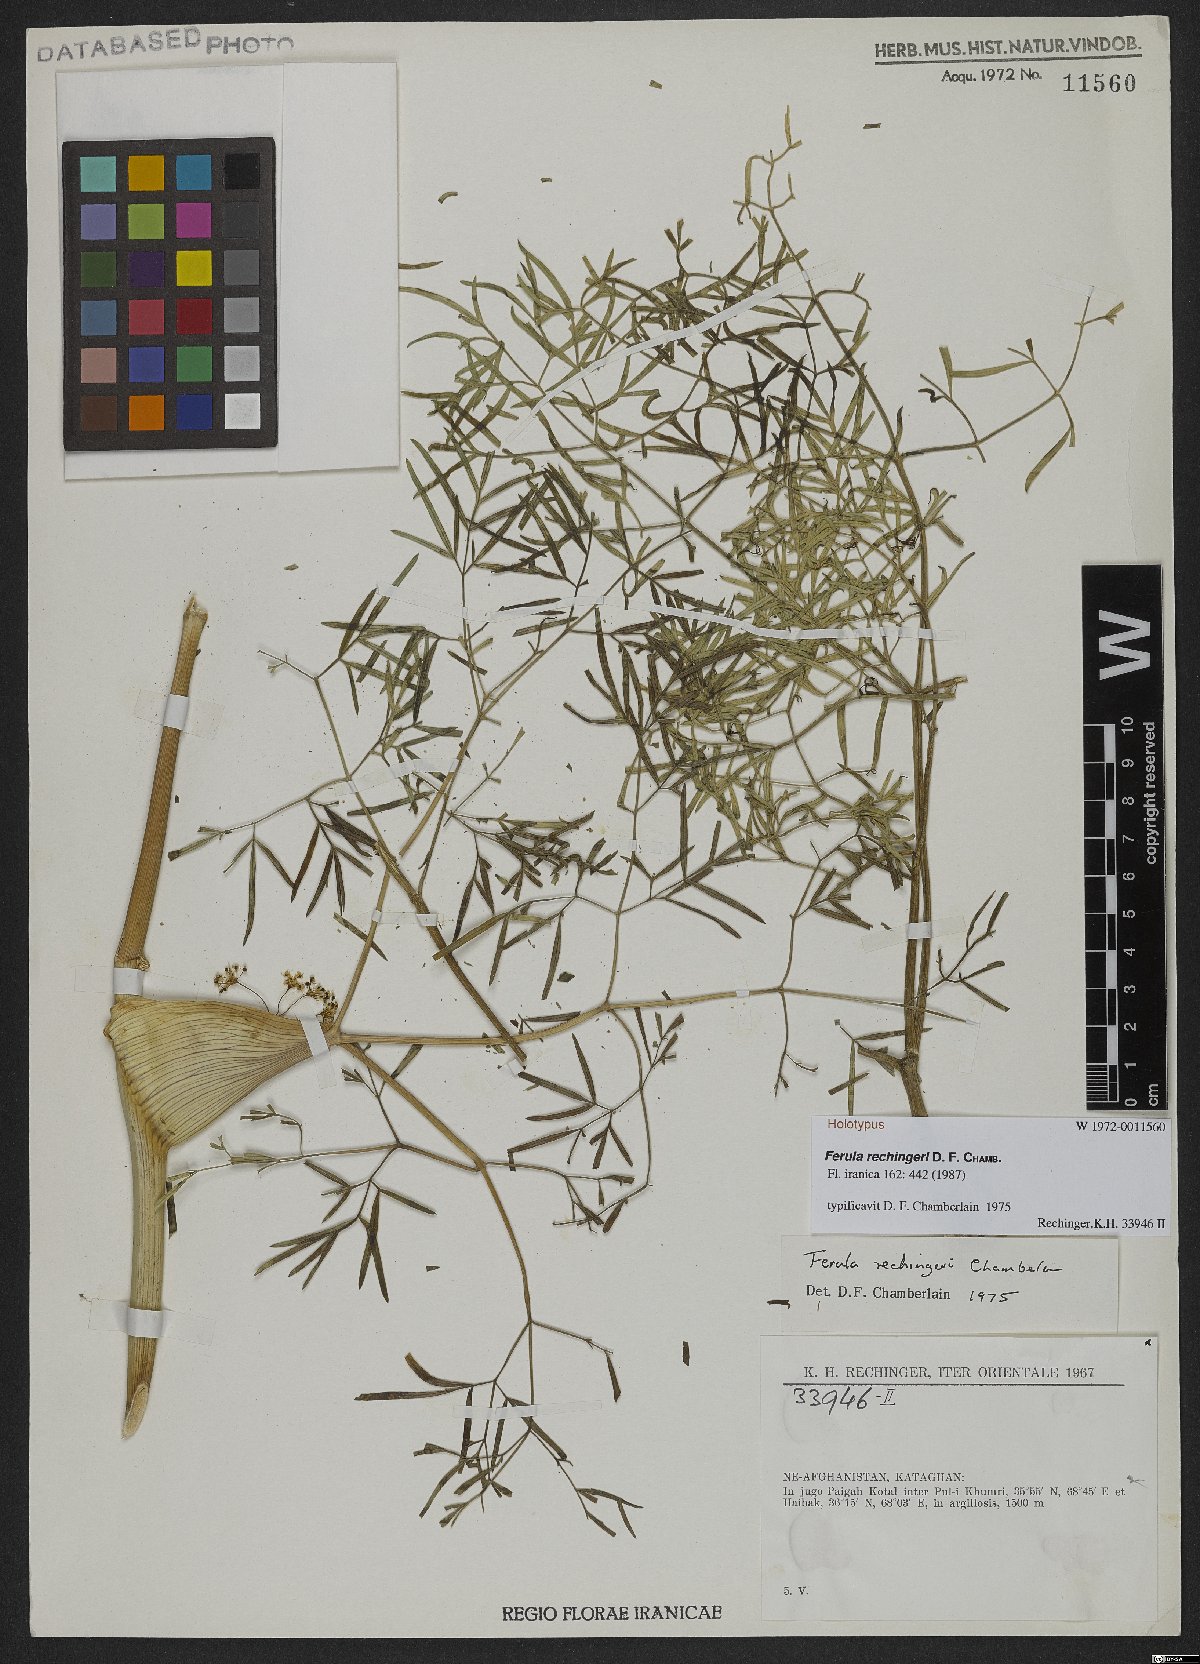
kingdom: Plantae
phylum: Tracheophyta
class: Magnoliopsida
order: Apiales
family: Apiaceae
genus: Ferula
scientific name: Ferula rechingeri
